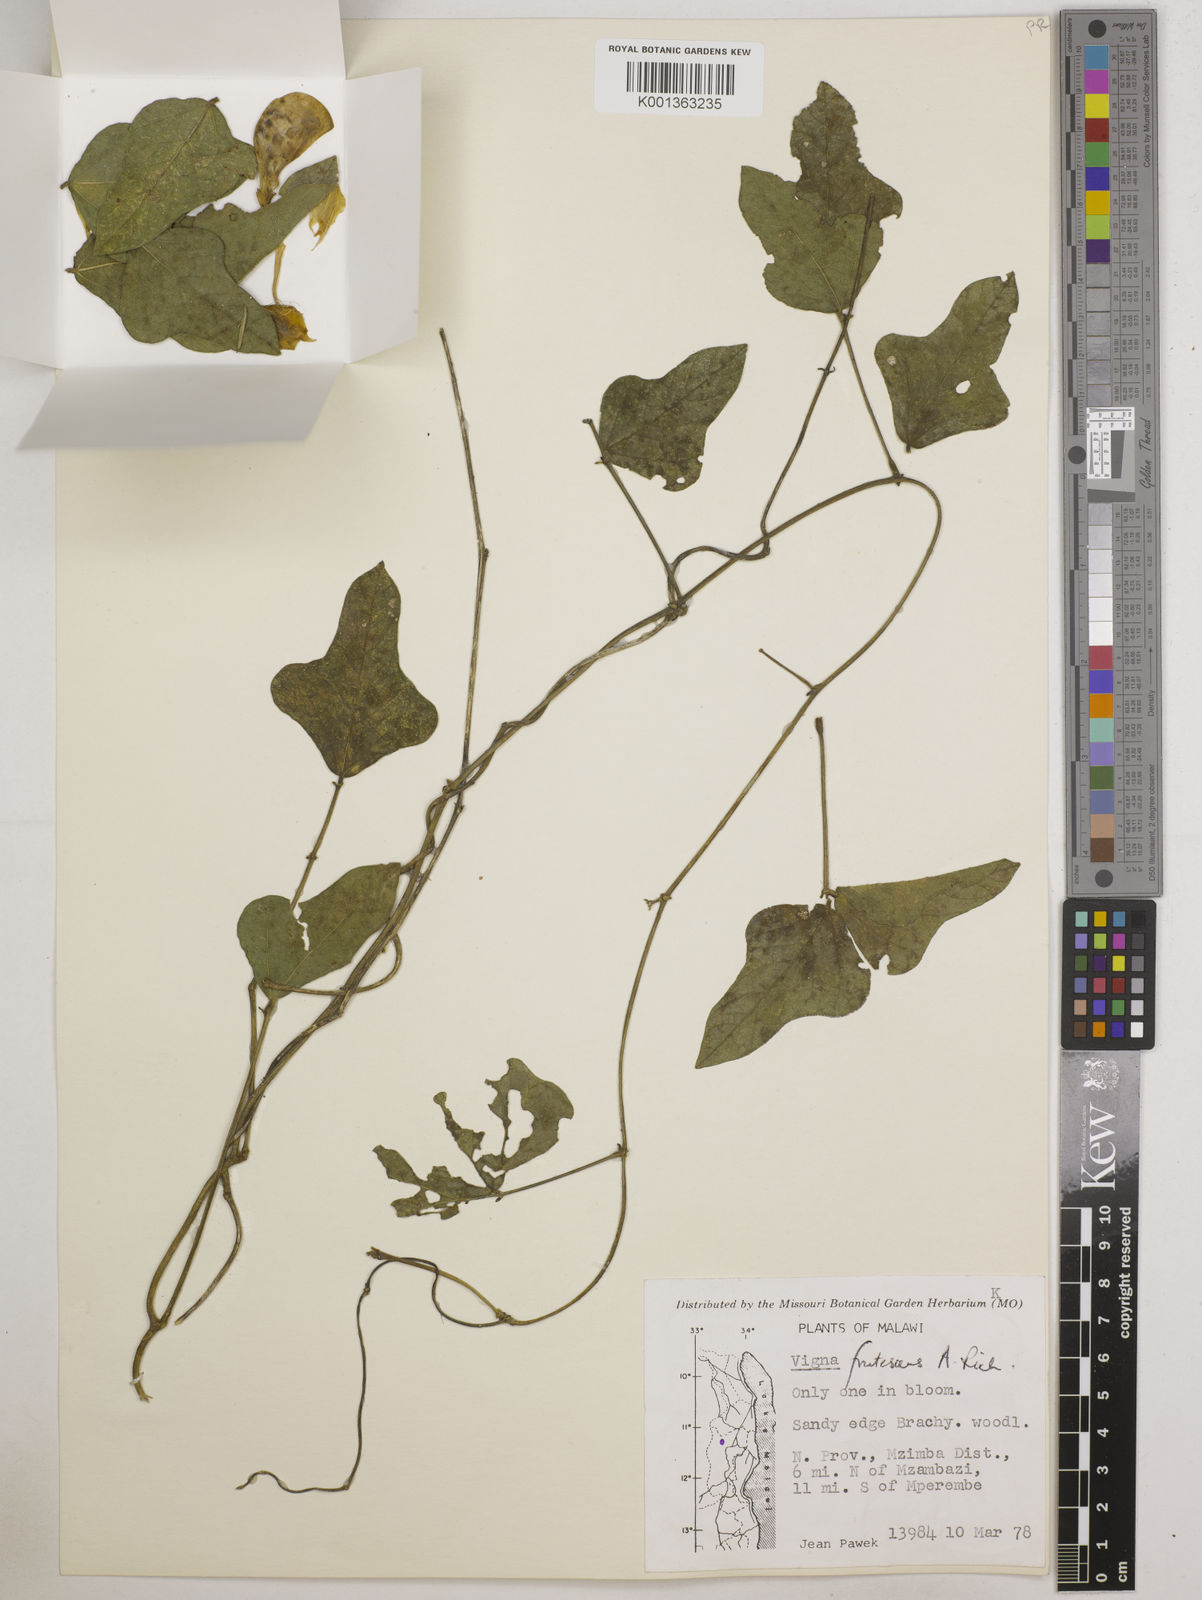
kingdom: Plantae
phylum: Tracheophyta
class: Magnoliopsida
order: Fabales
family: Fabaceae
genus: Vigna
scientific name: Vigna
